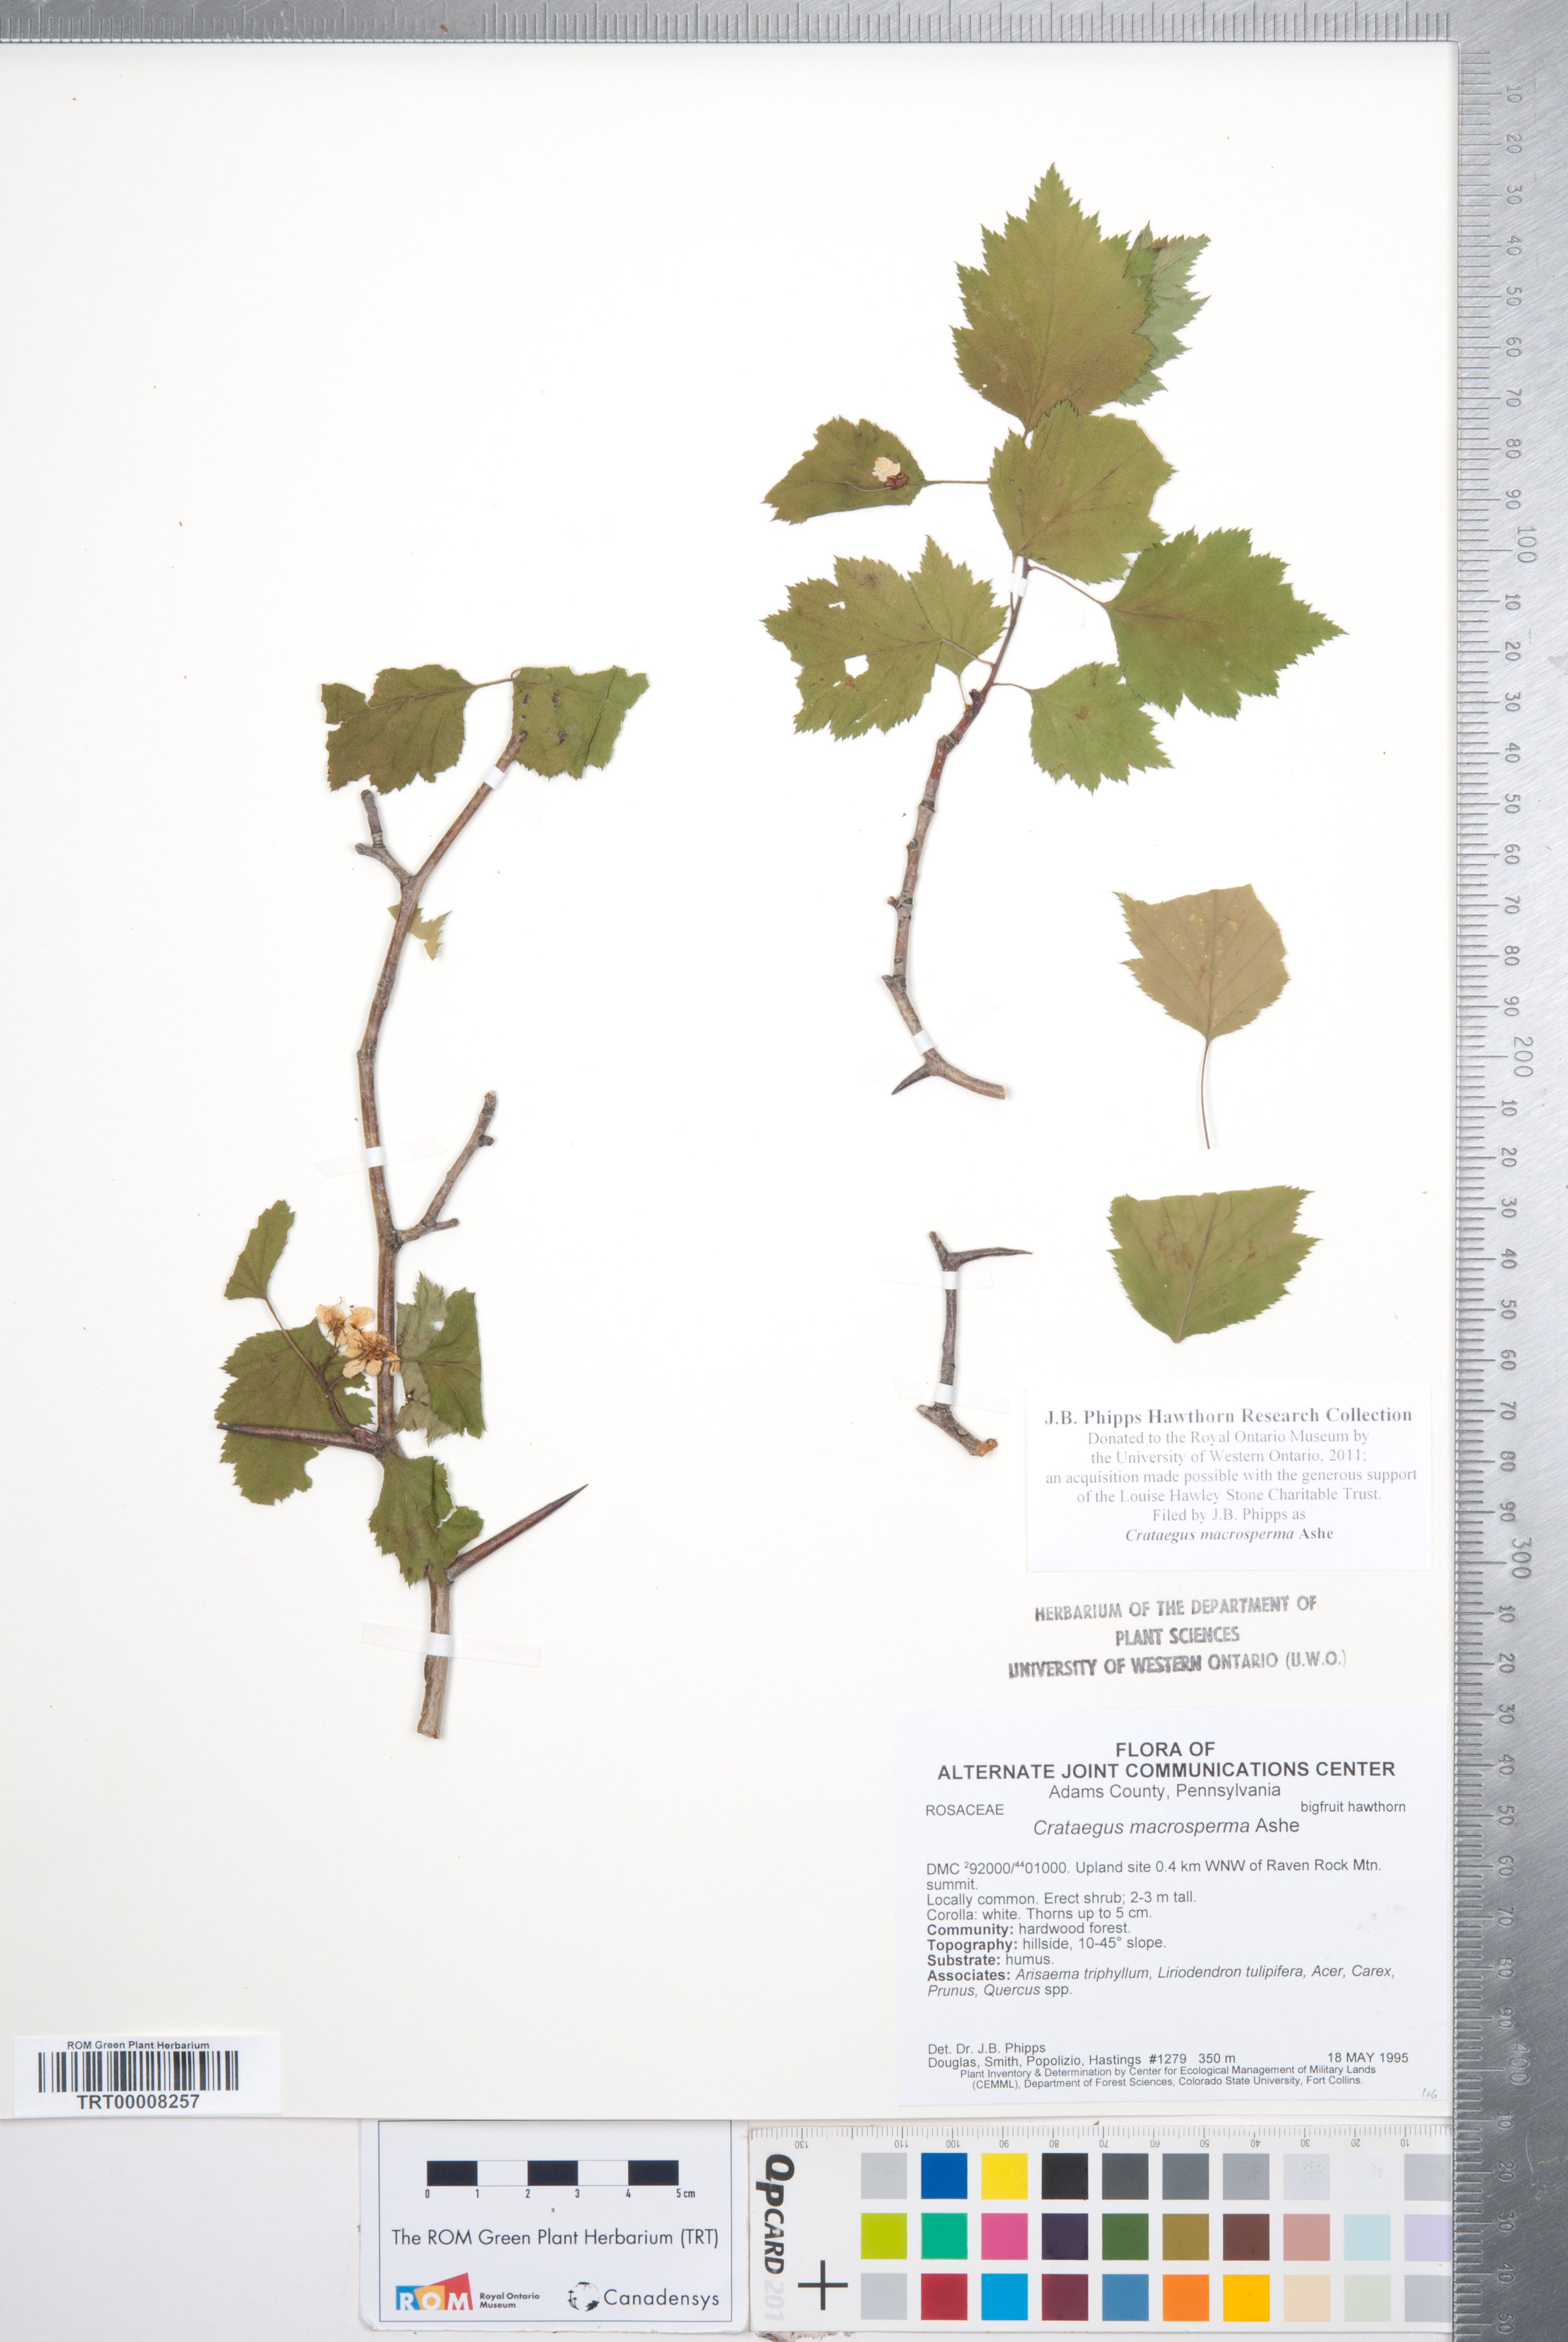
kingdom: Plantae
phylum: Tracheophyta
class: Magnoliopsida
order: Rosales
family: Rosaceae
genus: Crataegus
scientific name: Crataegus macrosperma
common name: Variable hawthorn
